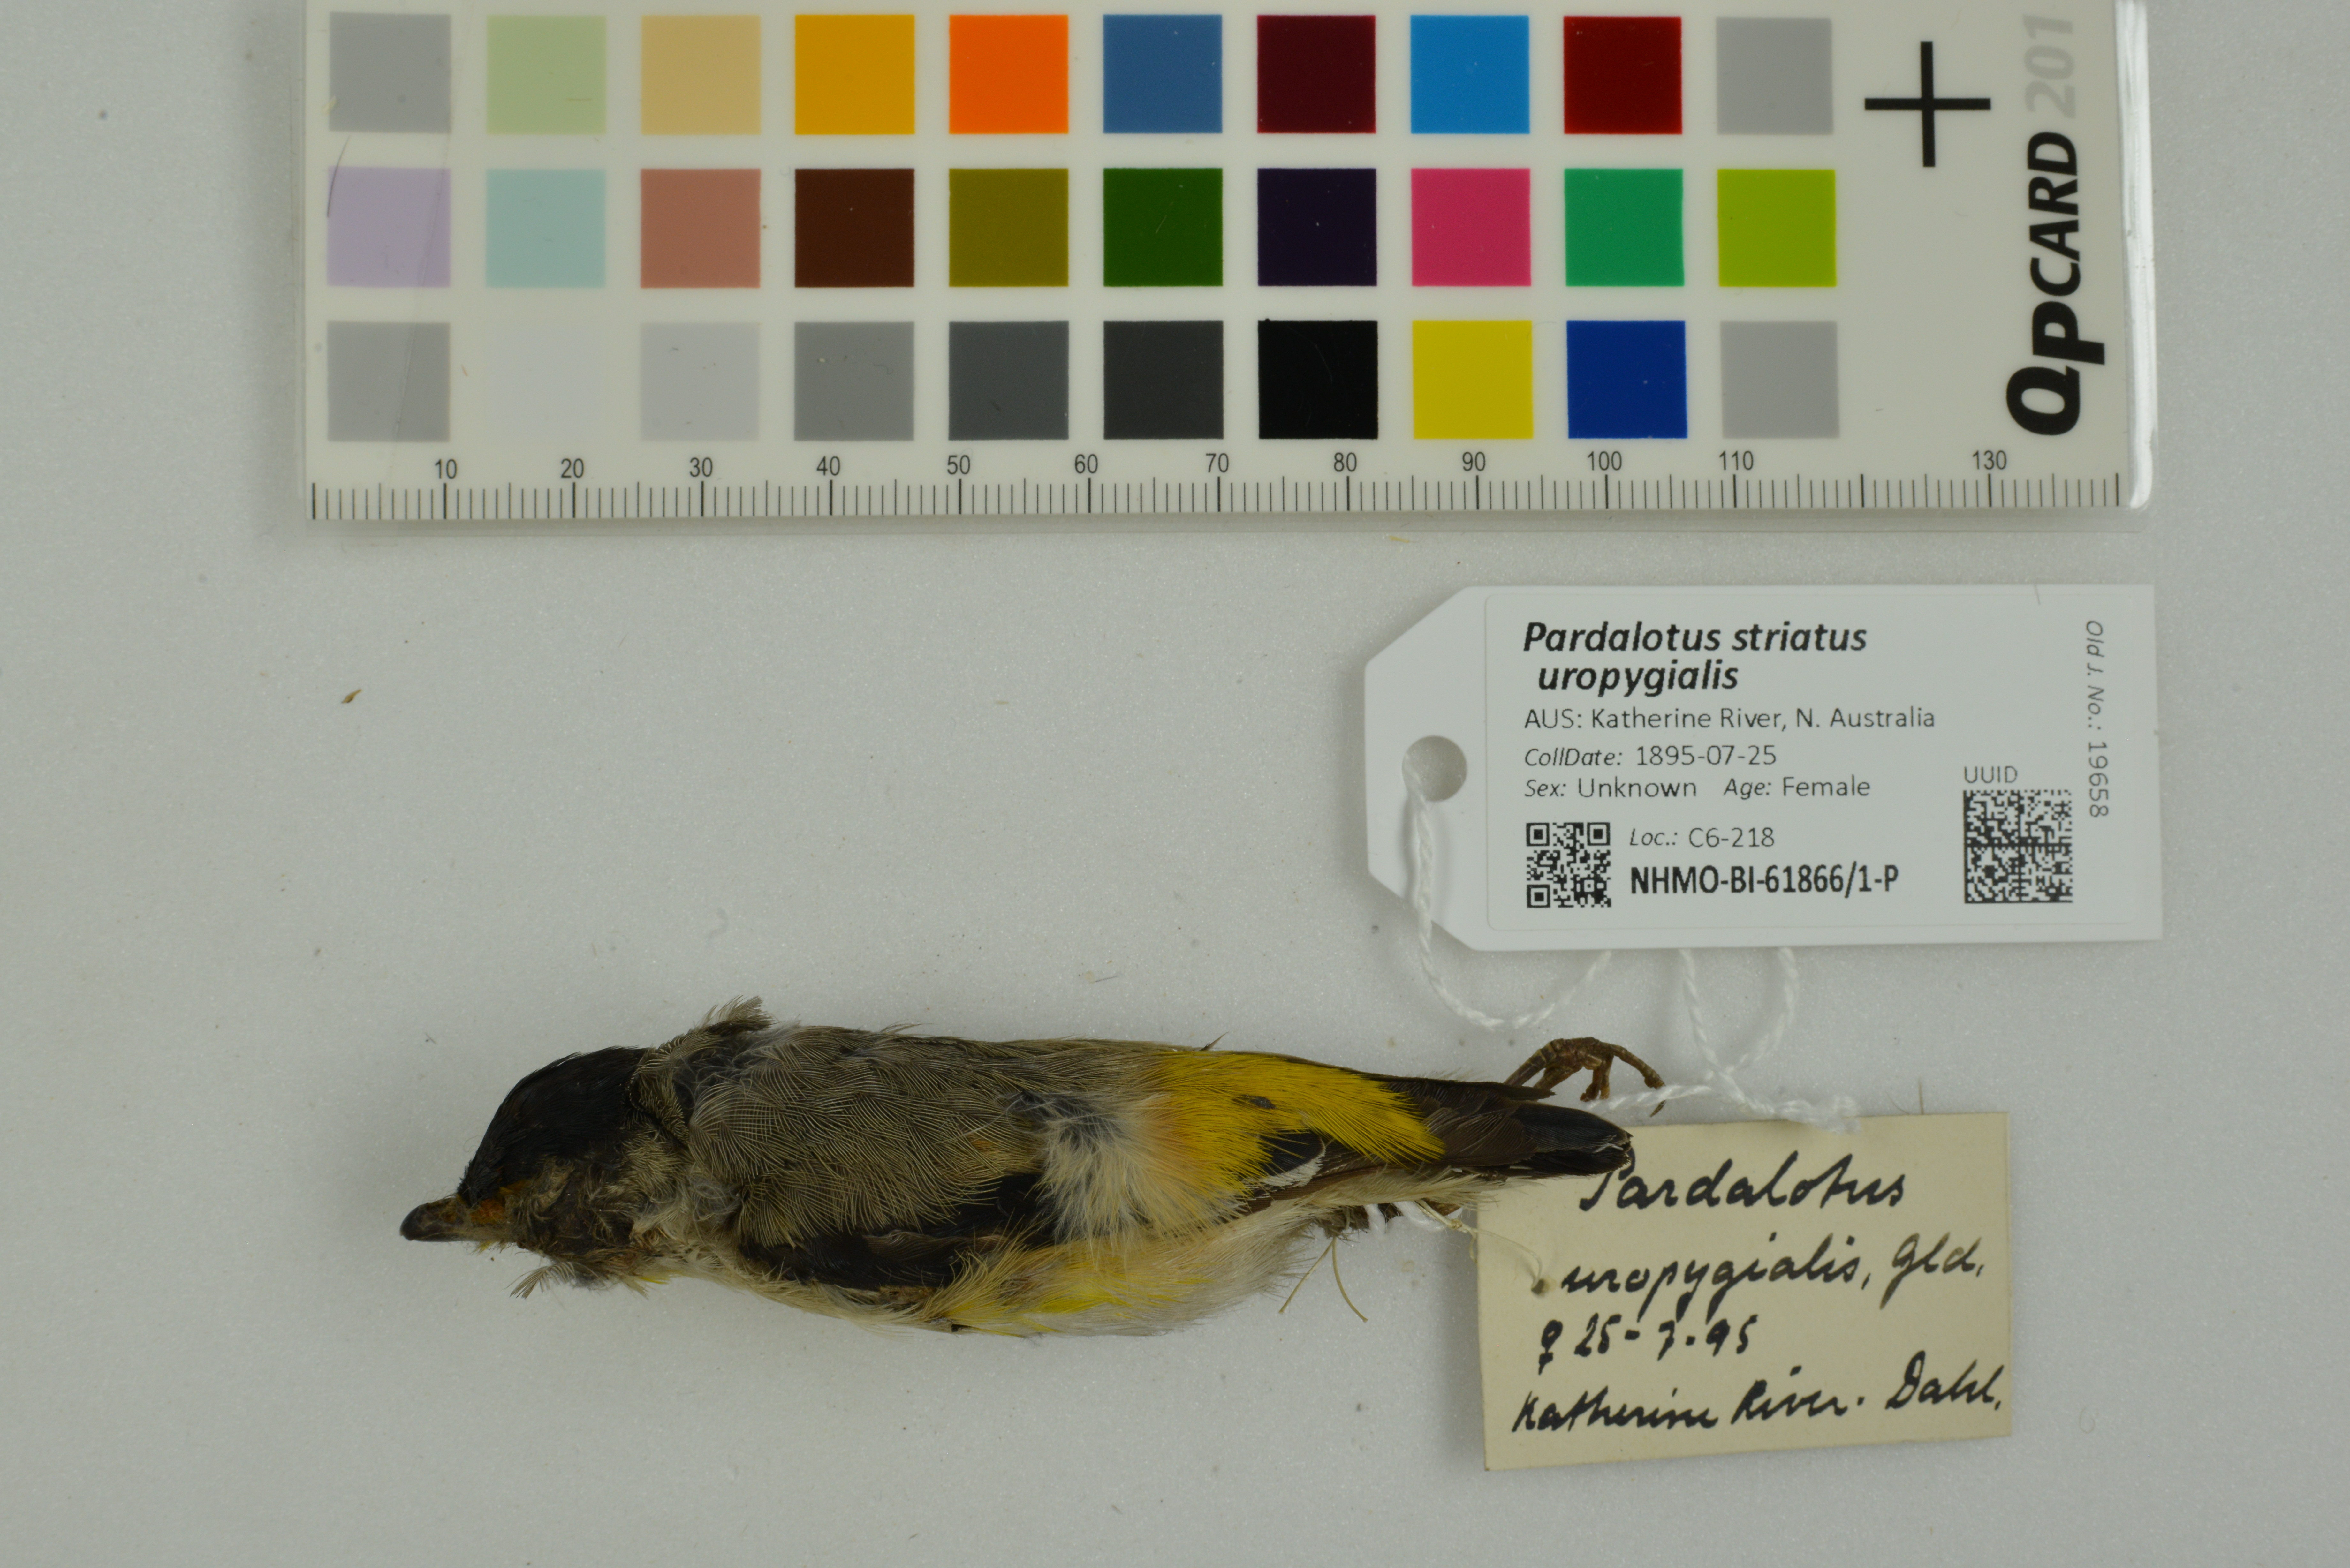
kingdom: Animalia
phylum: Chordata
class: Aves
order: Passeriformes
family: Pardalotidae
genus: Pardalotus
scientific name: Pardalotus striatus
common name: Striated pardalote
